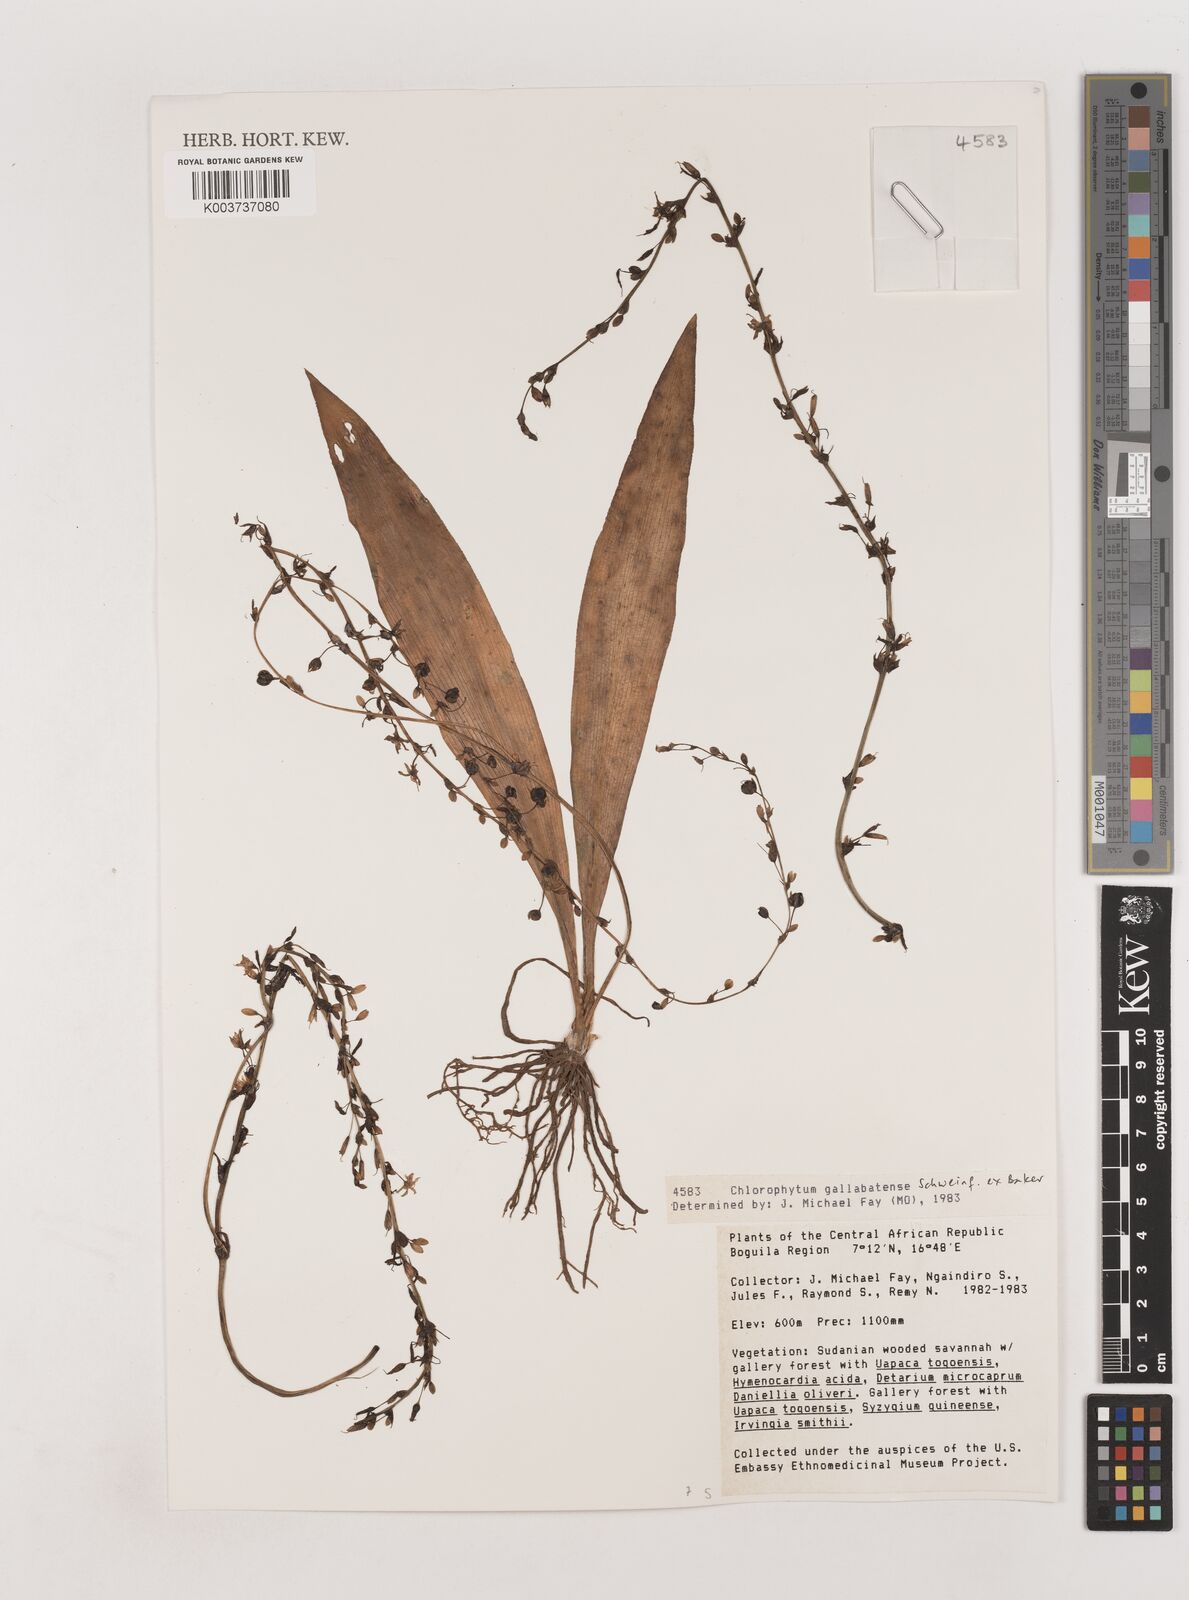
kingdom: Plantae
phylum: Tracheophyta
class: Liliopsida
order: Asparagales
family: Asparagaceae
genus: Chlorophytum
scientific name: Chlorophytum gallabatense
